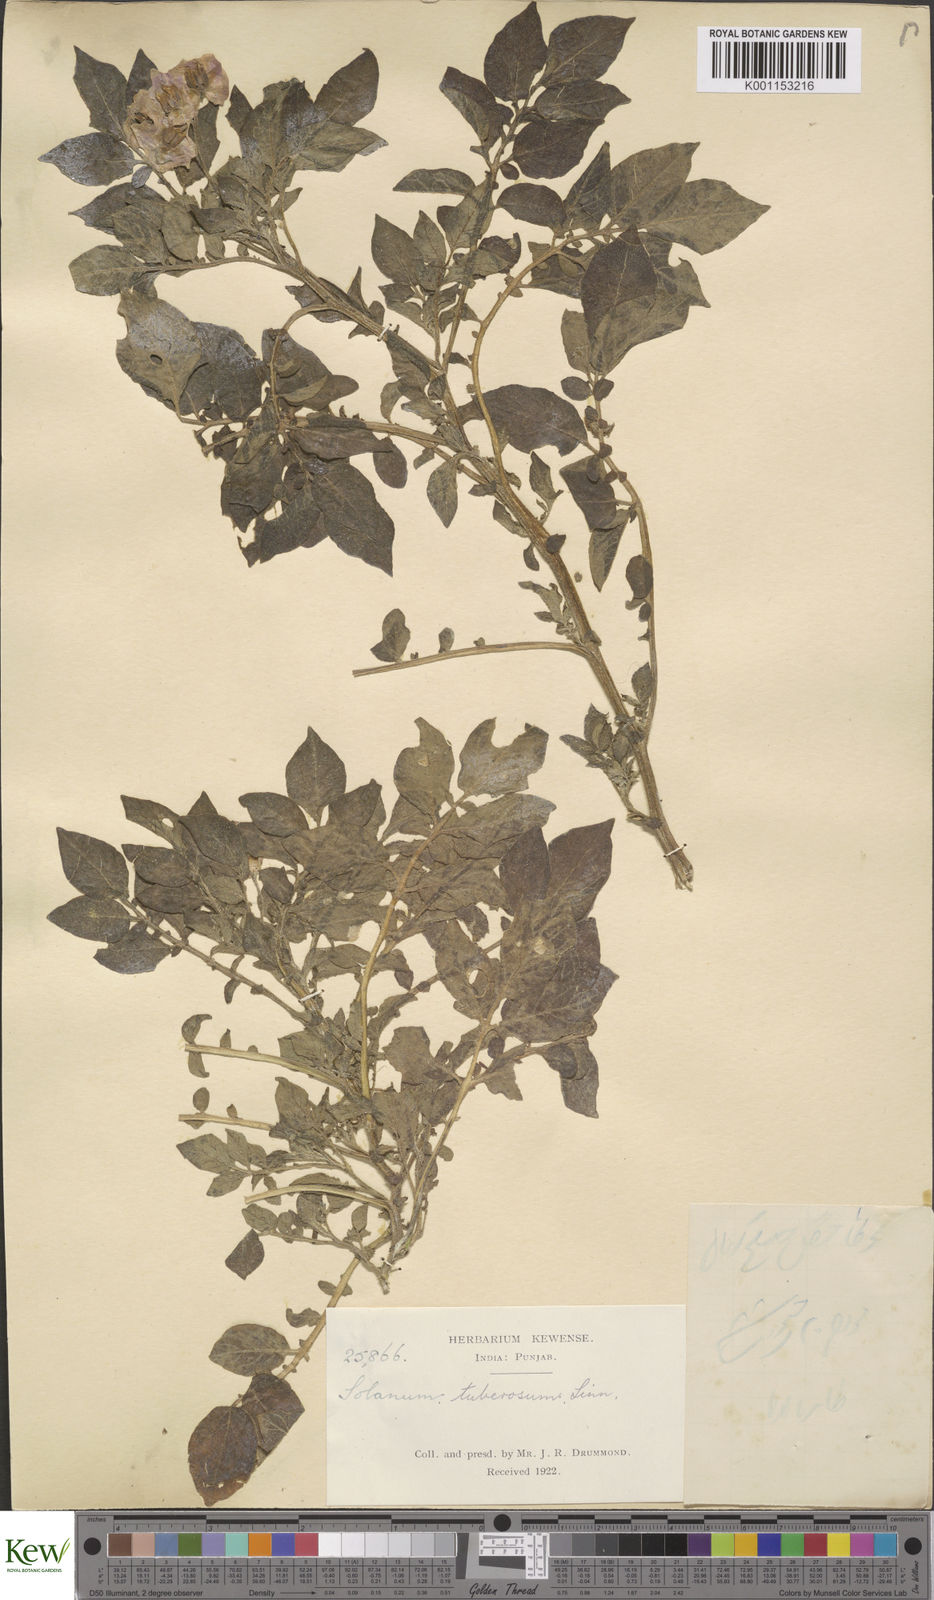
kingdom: Plantae
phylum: Tracheophyta
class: Magnoliopsida
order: Solanales
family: Solanaceae
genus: Solanum
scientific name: Solanum tuberosum
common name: Potato
